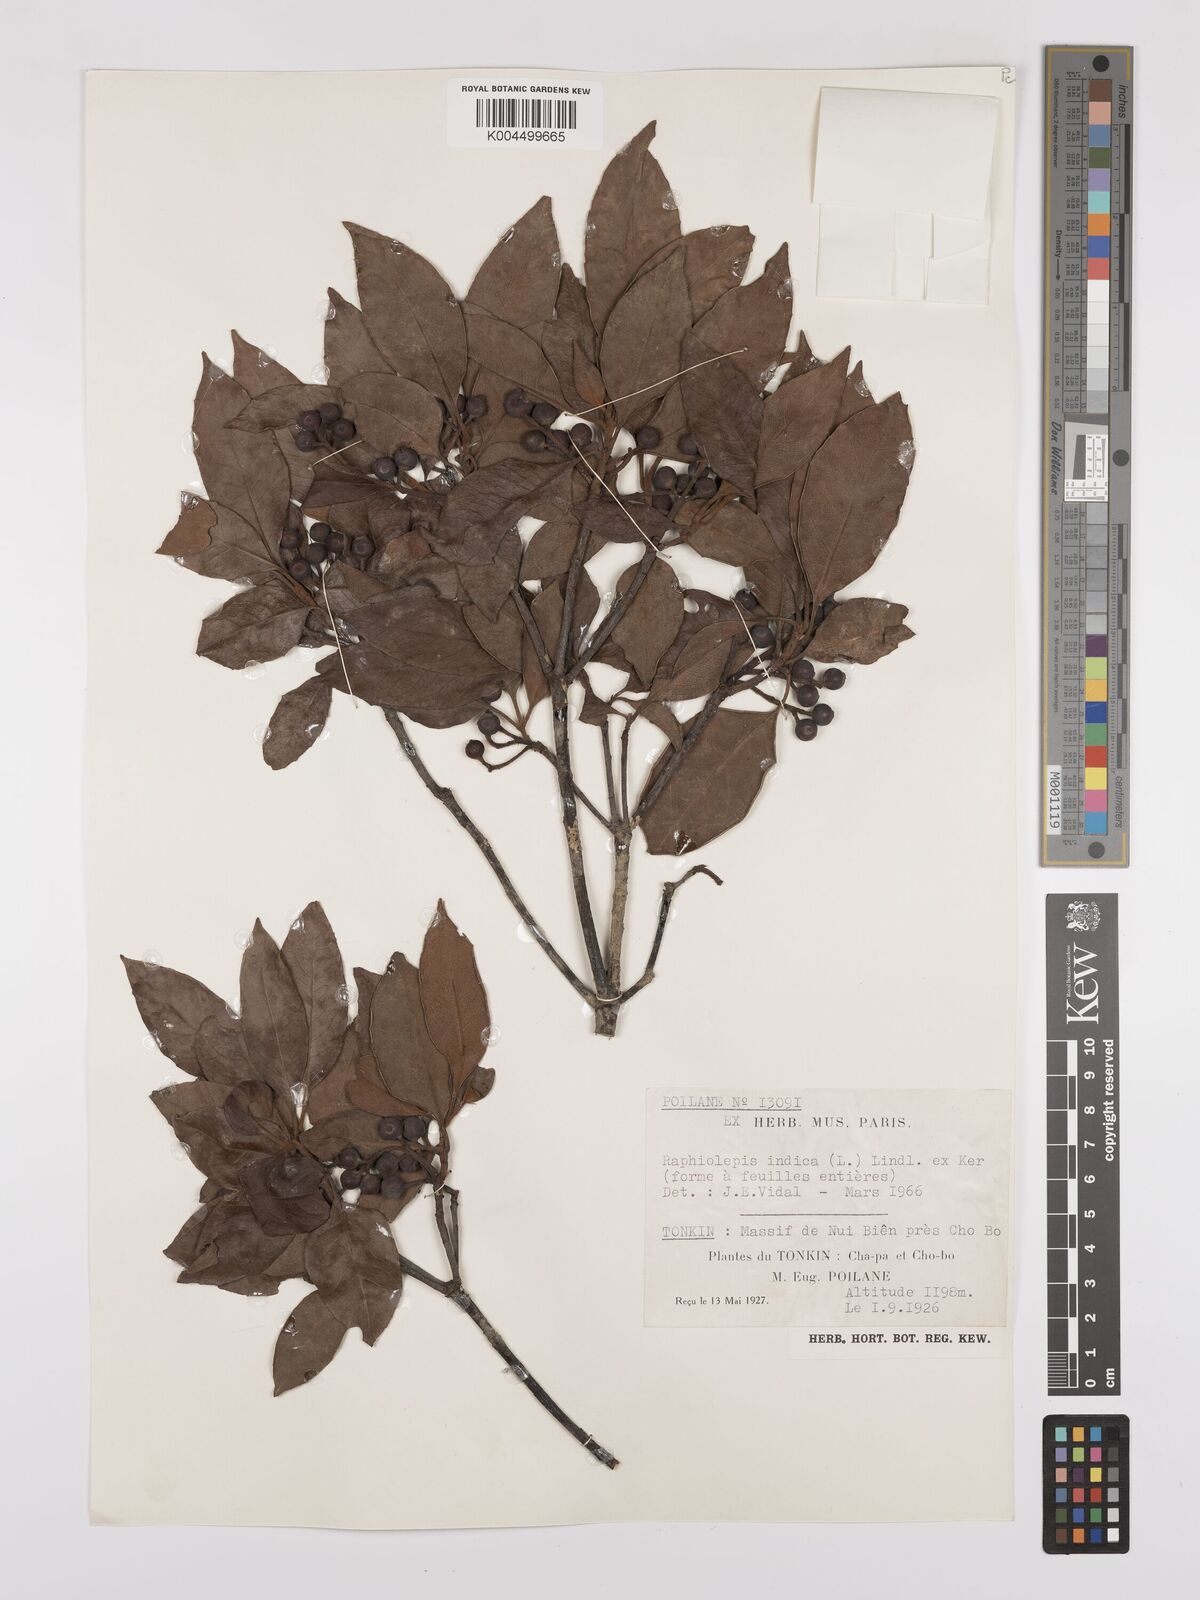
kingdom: Plantae
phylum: Tracheophyta
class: Magnoliopsida
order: Rosales
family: Rosaceae
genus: Rhaphiolepis
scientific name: Rhaphiolepis indica
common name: India-hawthorn
